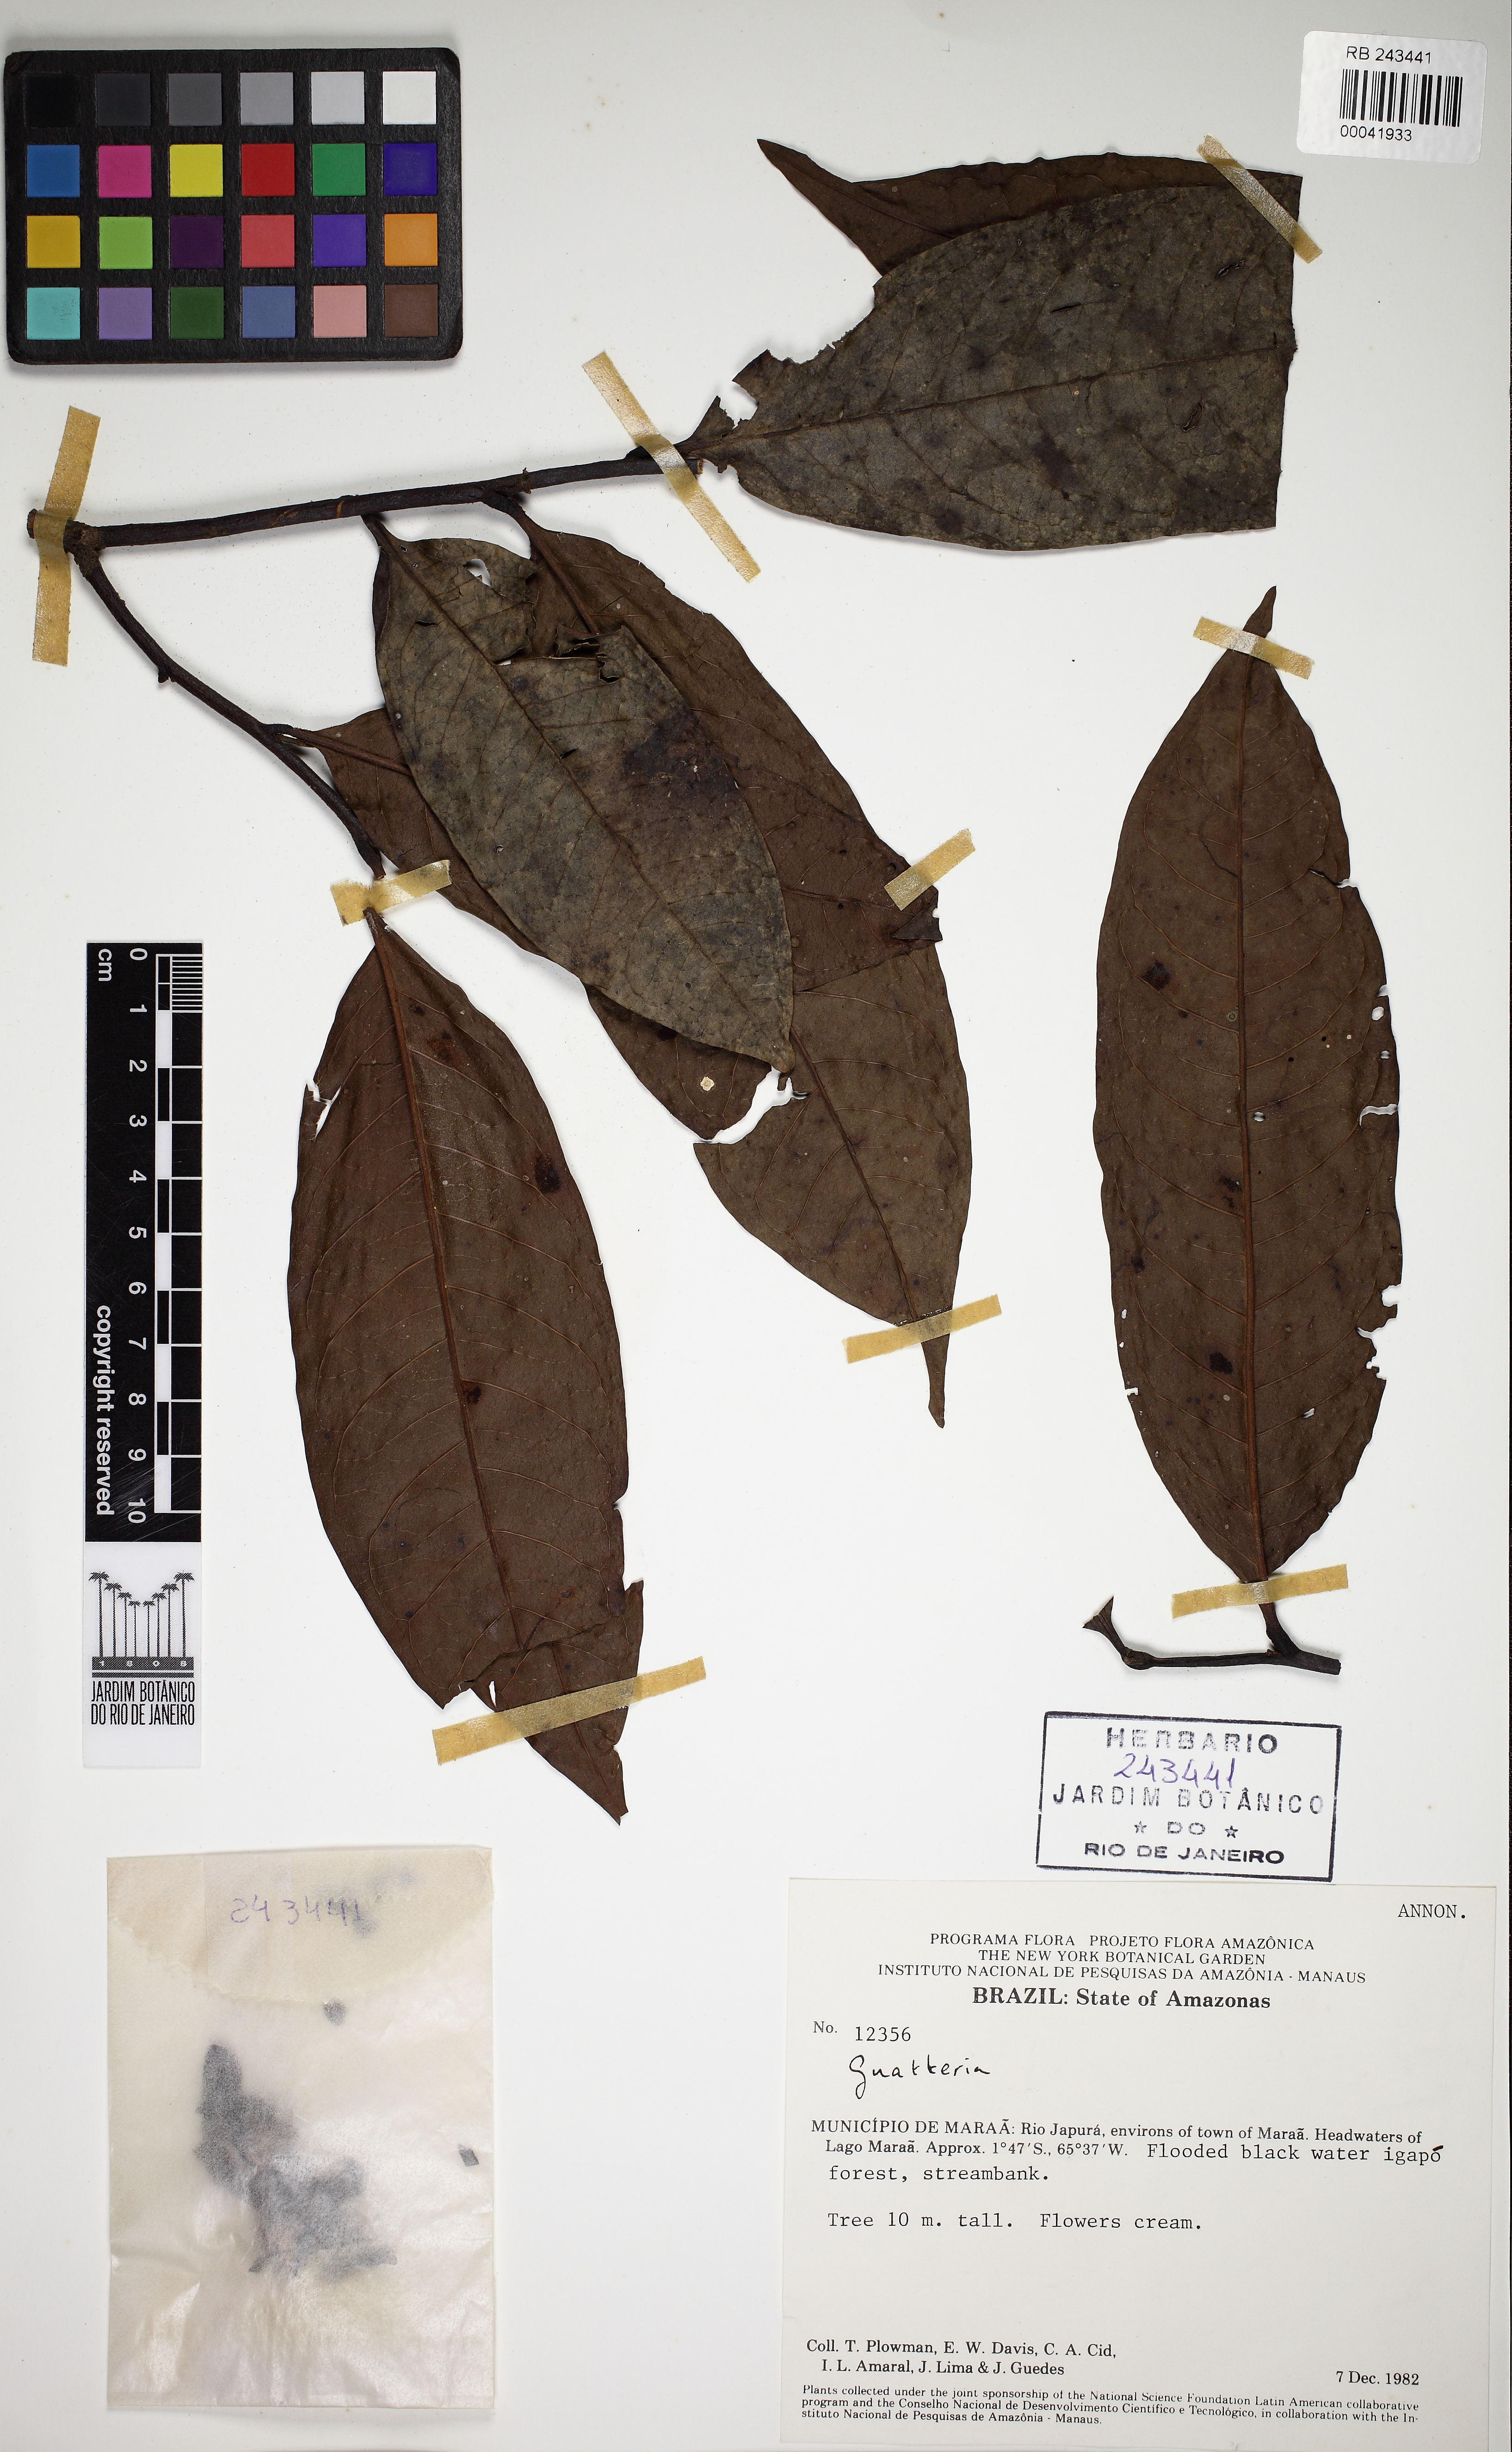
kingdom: Plantae
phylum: Tracheophyta
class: Magnoliopsida
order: Magnoliales
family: Annonaceae
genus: Guatteria
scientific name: Guatteria inundata
